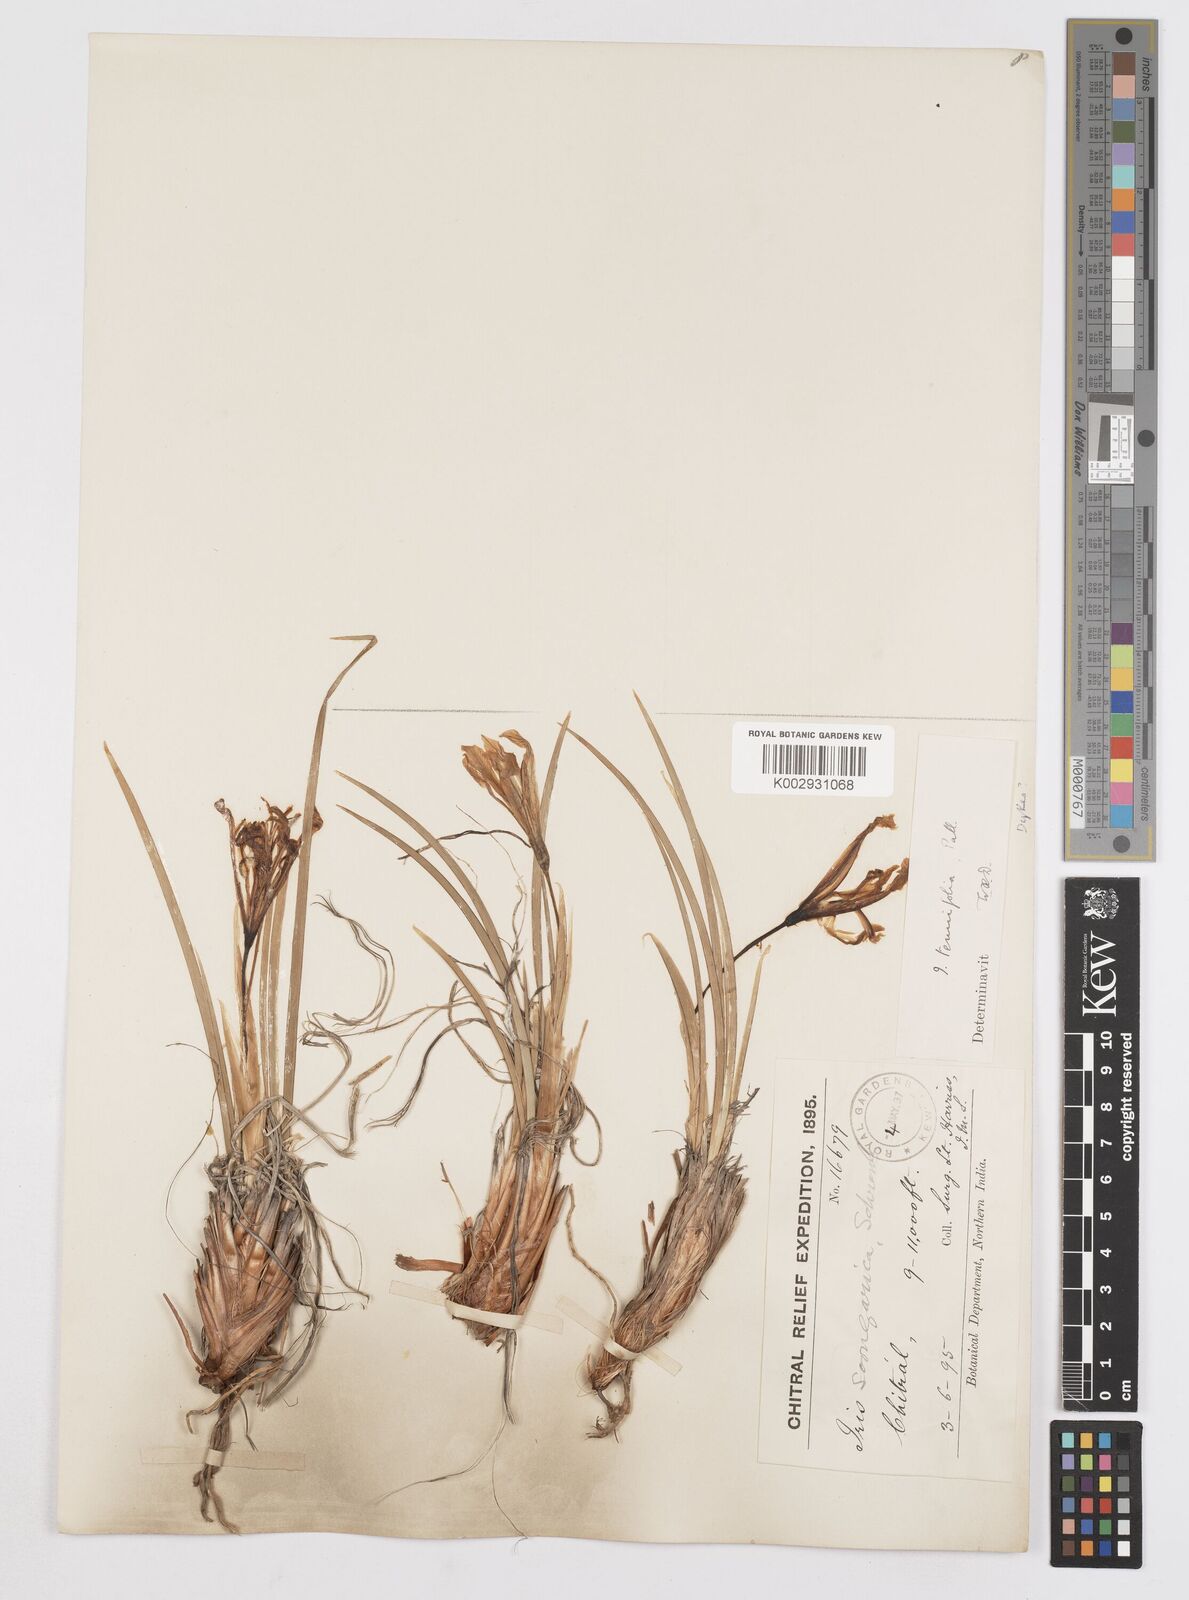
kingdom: Plantae
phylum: Tracheophyta
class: Liliopsida
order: Asparagales
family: Iridaceae
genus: Iris
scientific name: Iris tenuifolia
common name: Slender-leaf iris
